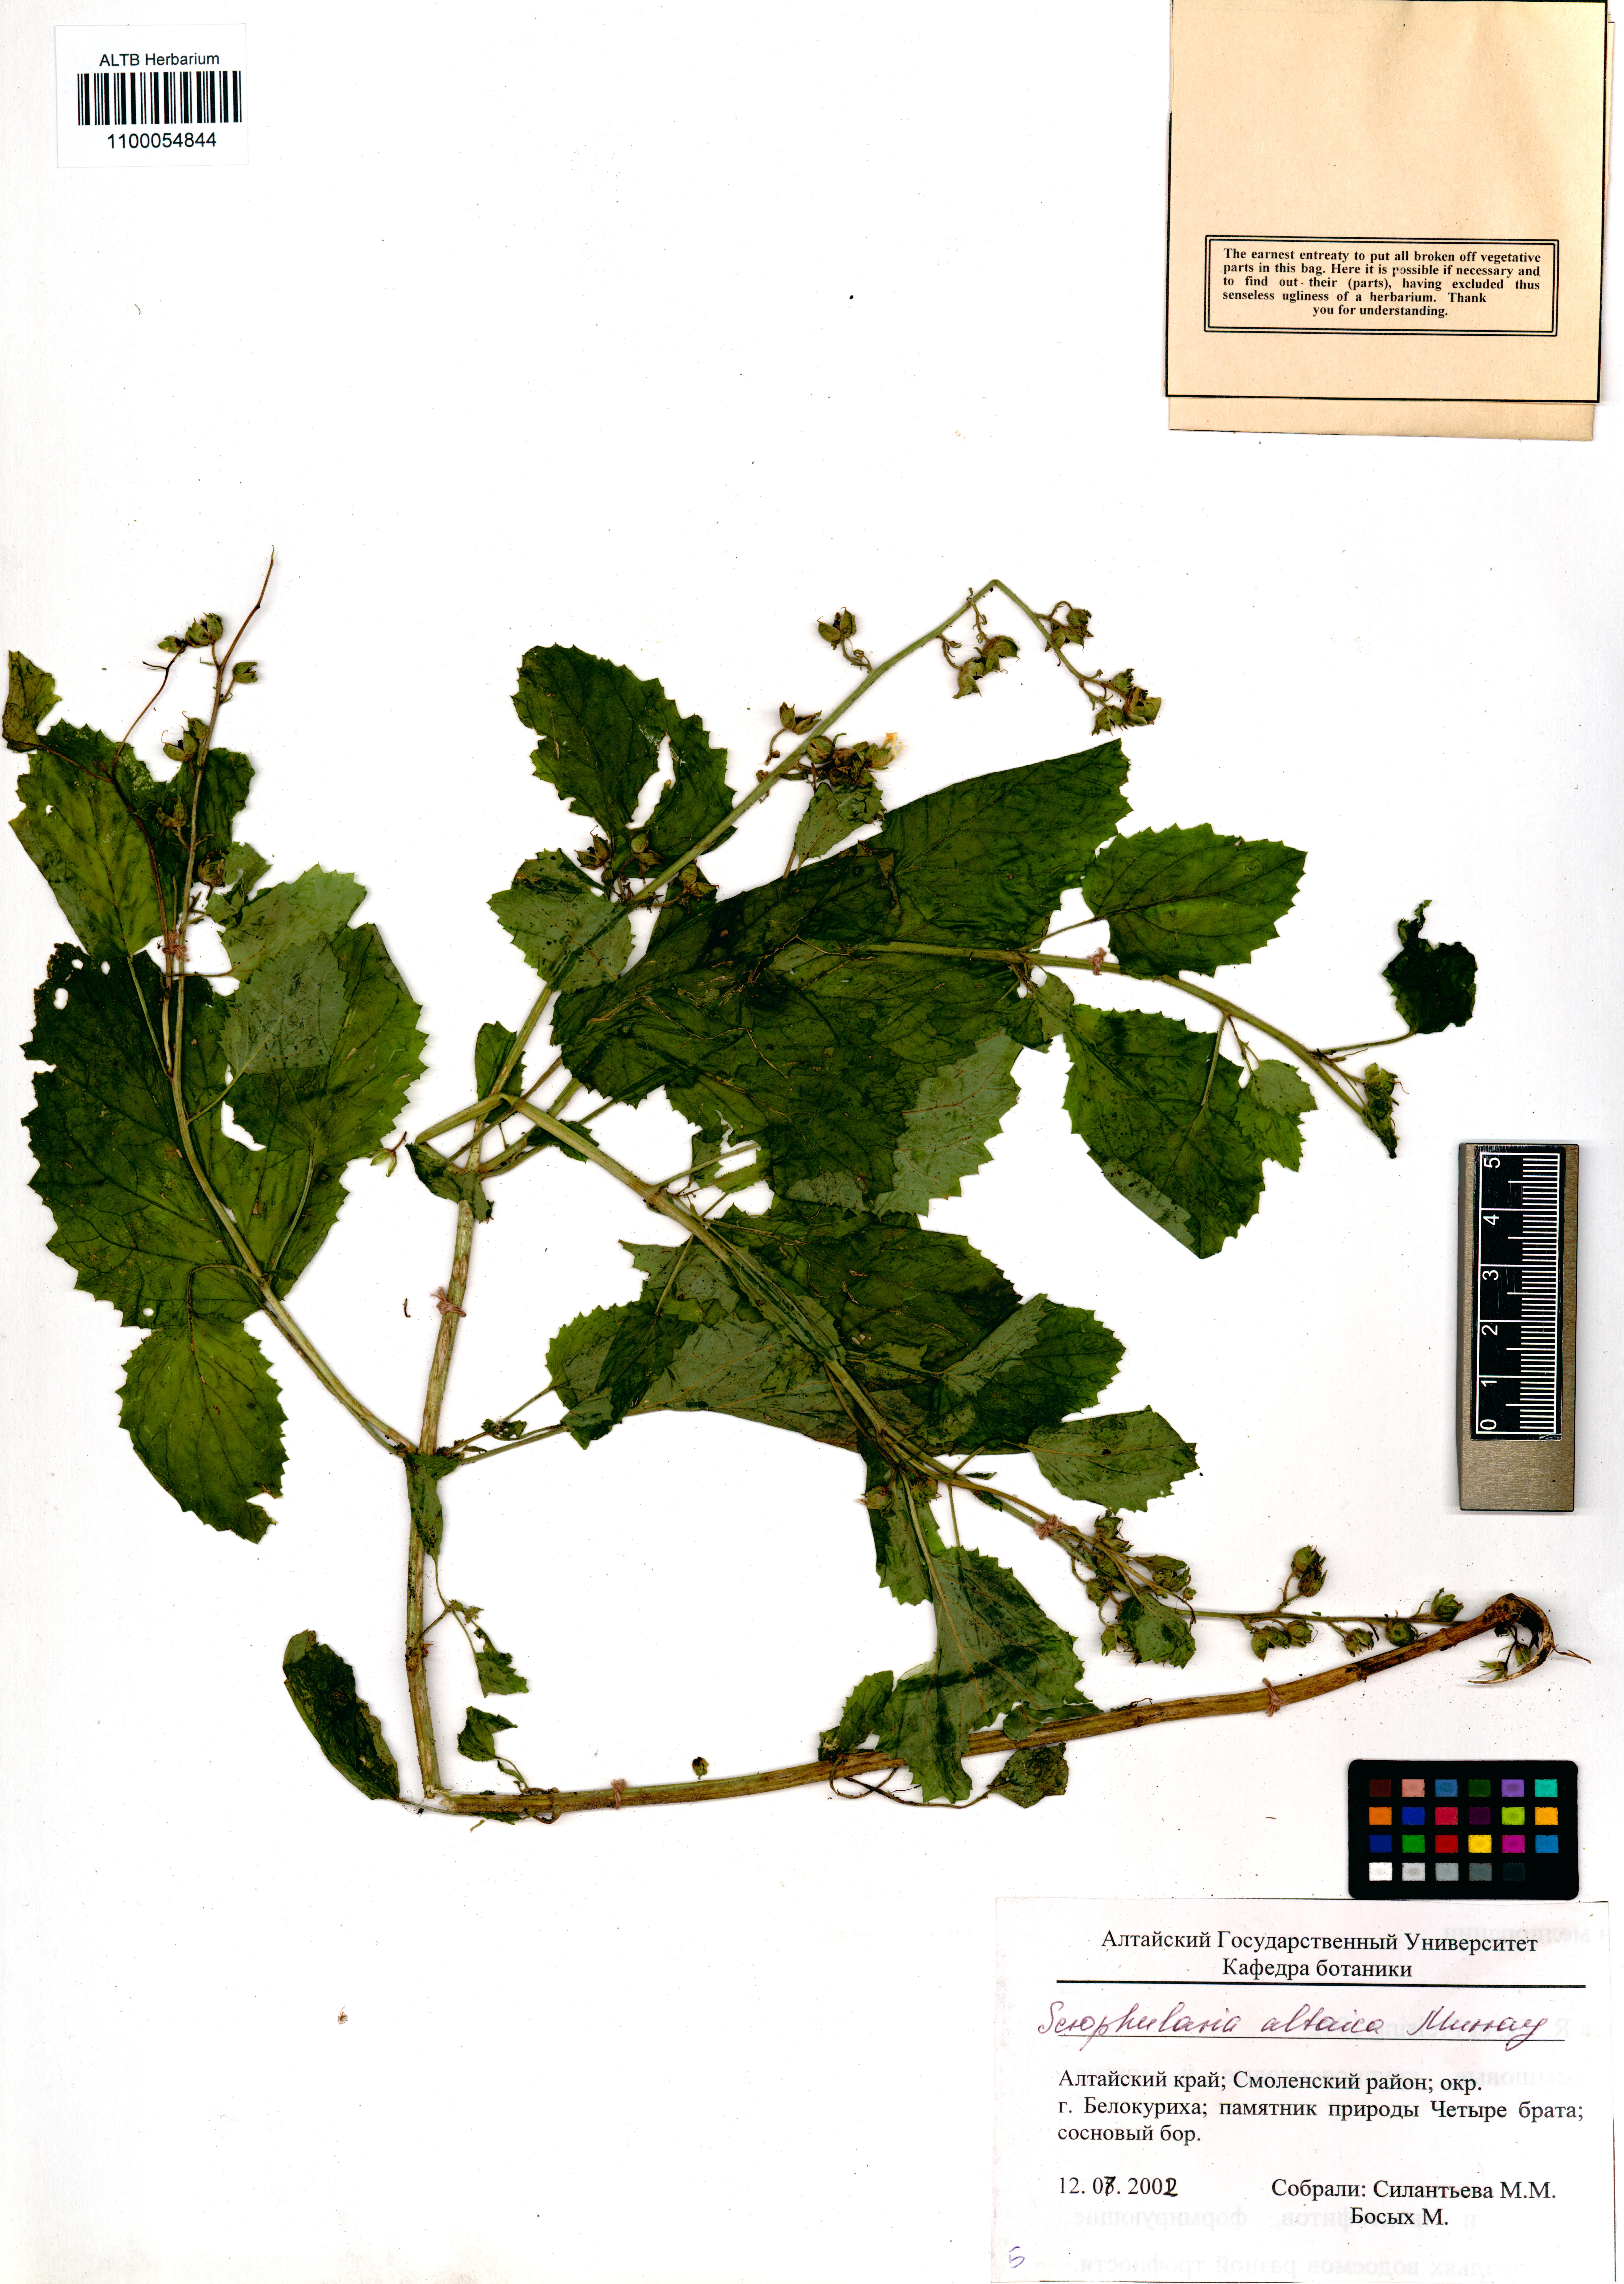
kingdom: Plantae
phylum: Tracheophyta
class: Magnoliopsida
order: Lamiales
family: Scrophulariaceae
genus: Scrophularia
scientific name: Scrophularia altaica
